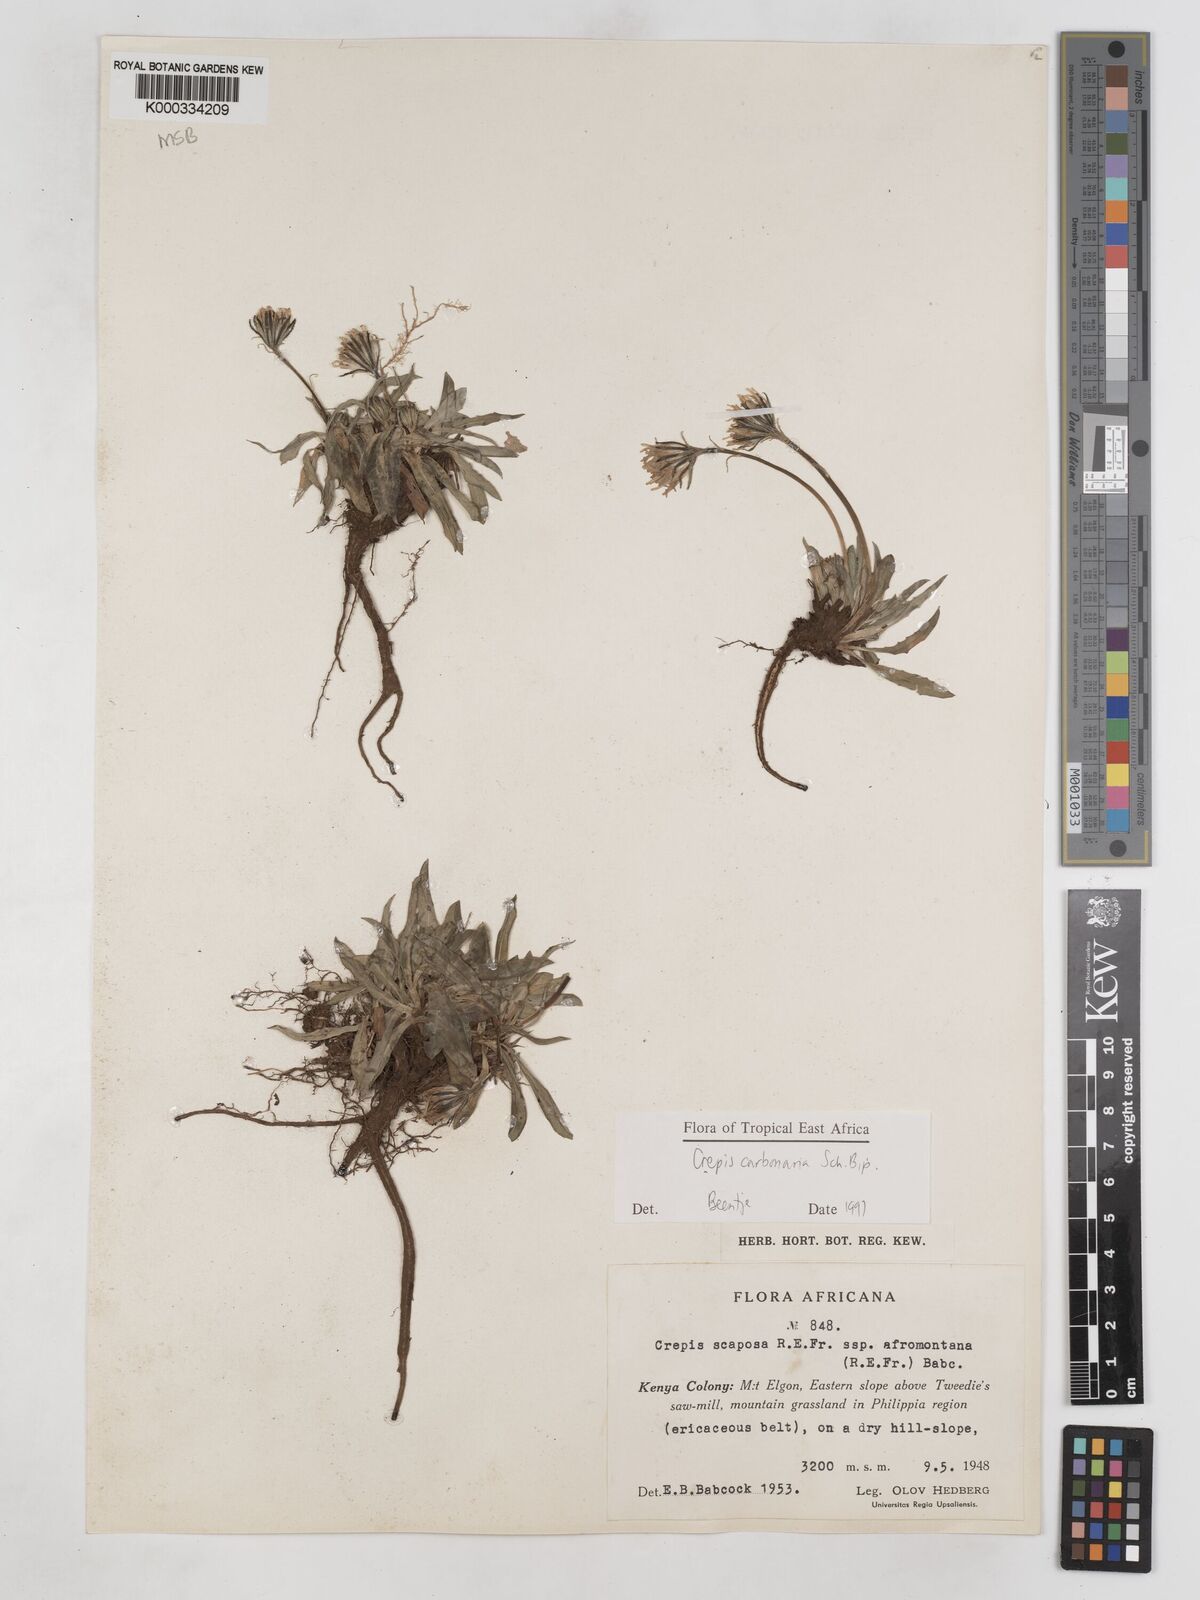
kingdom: Plantae
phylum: Tracheophyta
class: Magnoliopsida
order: Asterales
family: Asteraceae
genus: Crepis
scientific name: Crepis carbonaria
